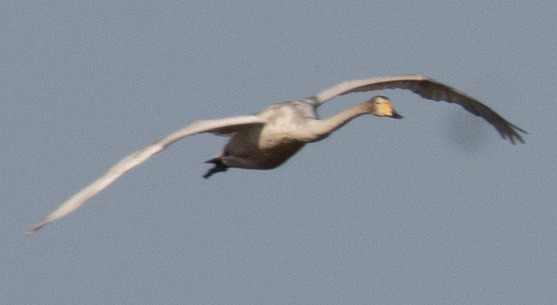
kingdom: Animalia
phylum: Chordata
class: Aves
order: Anseriformes
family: Anatidae
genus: Cygnus
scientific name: Cygnus cygnus
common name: Sangsvane
